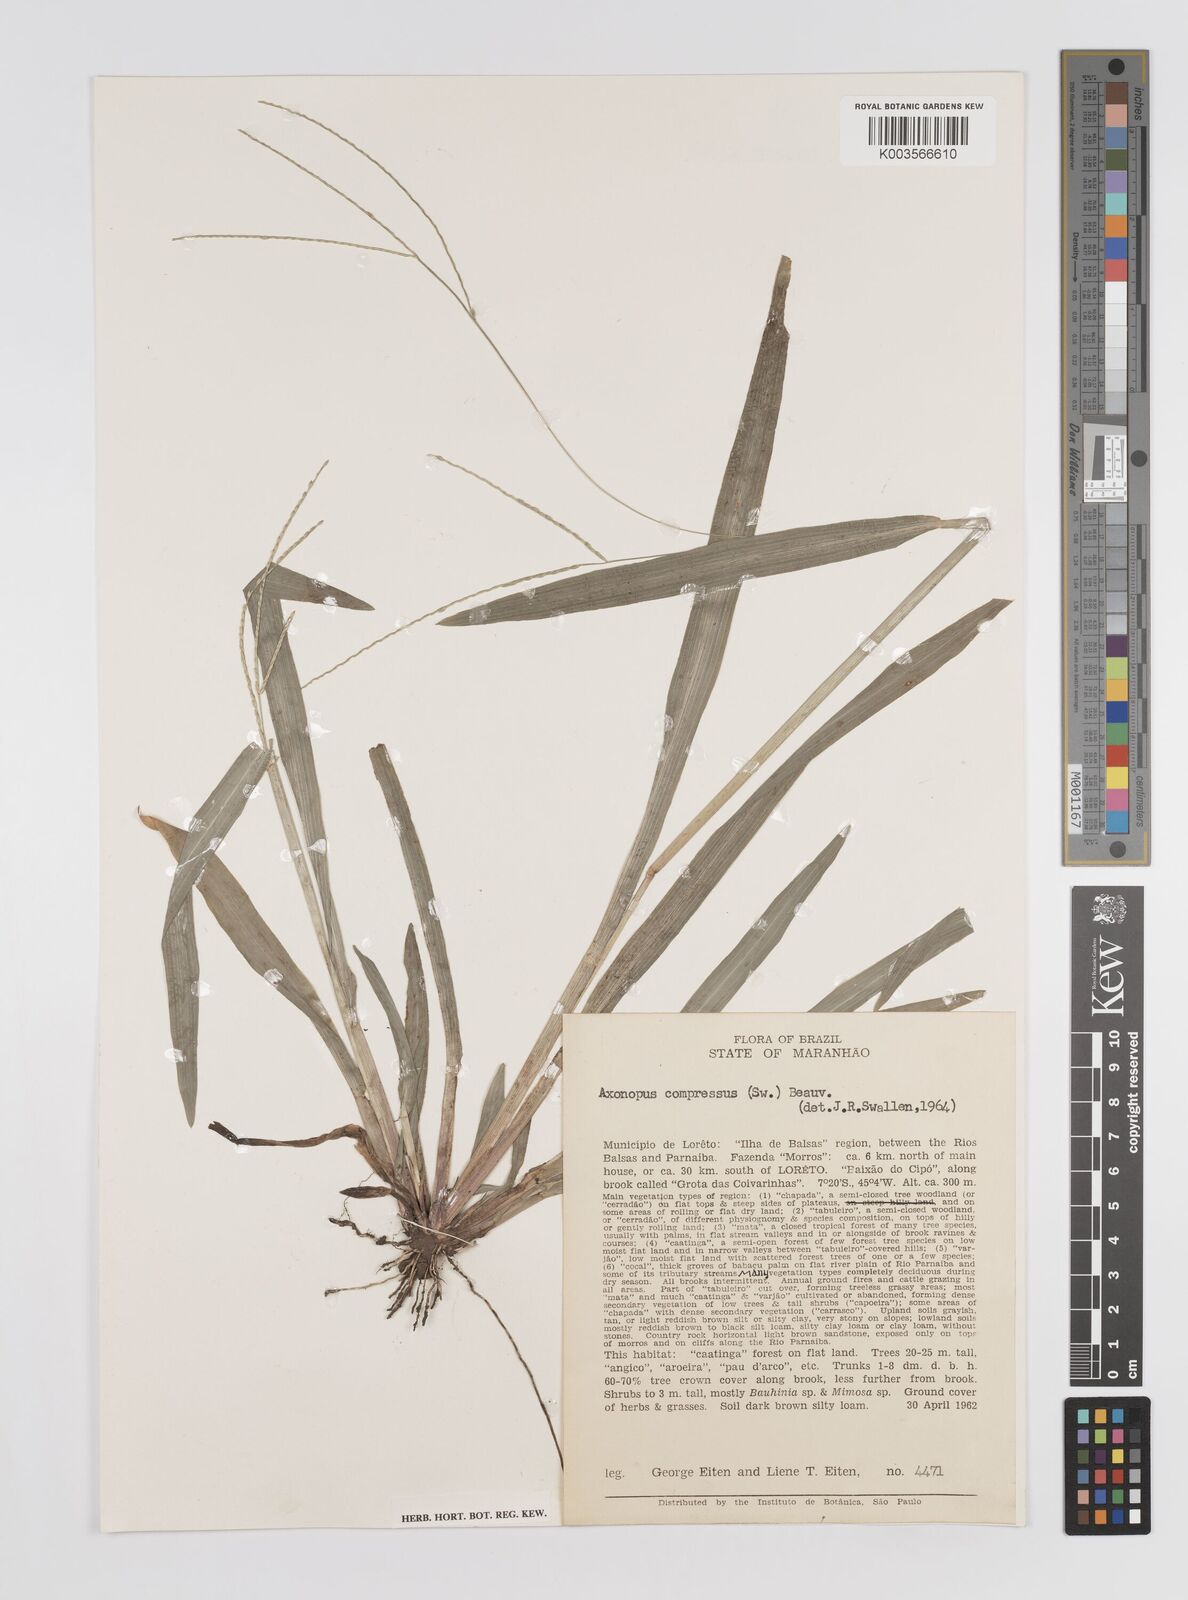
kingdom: Plantae
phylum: Tracheophyta
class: Liliopsida
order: Poales
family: Poaceae
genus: Axonopus
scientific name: Axonopus compressus
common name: American carpet grass
